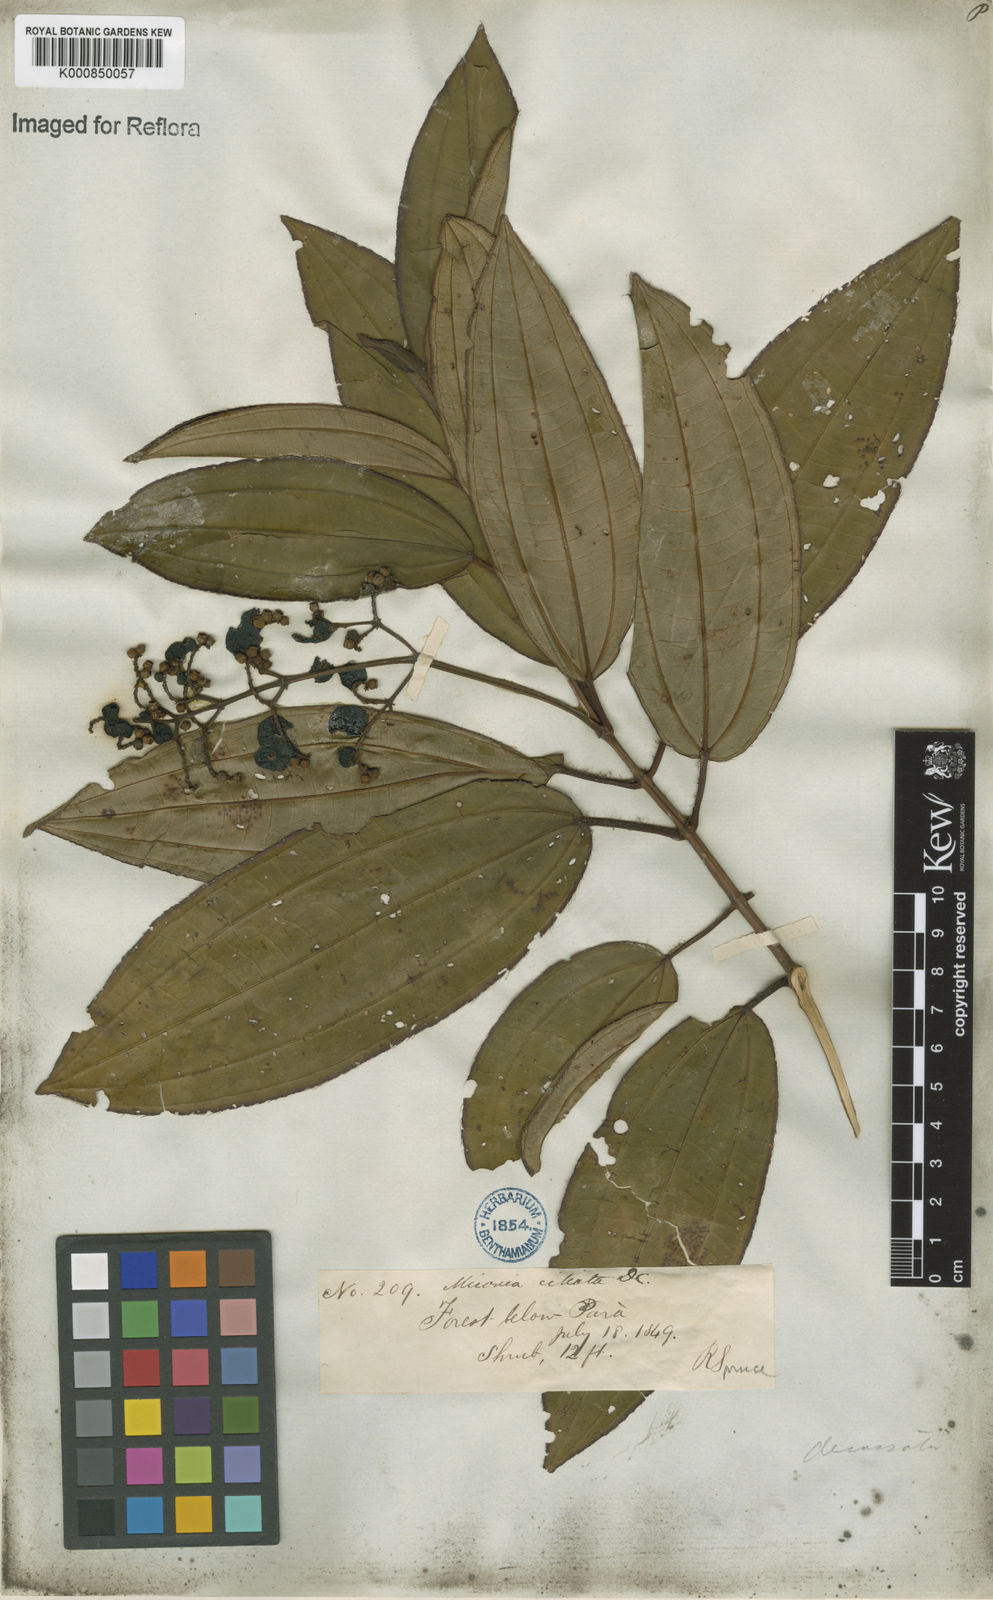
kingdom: Plantae
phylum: Tracheophyta
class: Magnoliopsida
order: Myrtales
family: Melastomataceae
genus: Miconia
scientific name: Miconia ciliata
